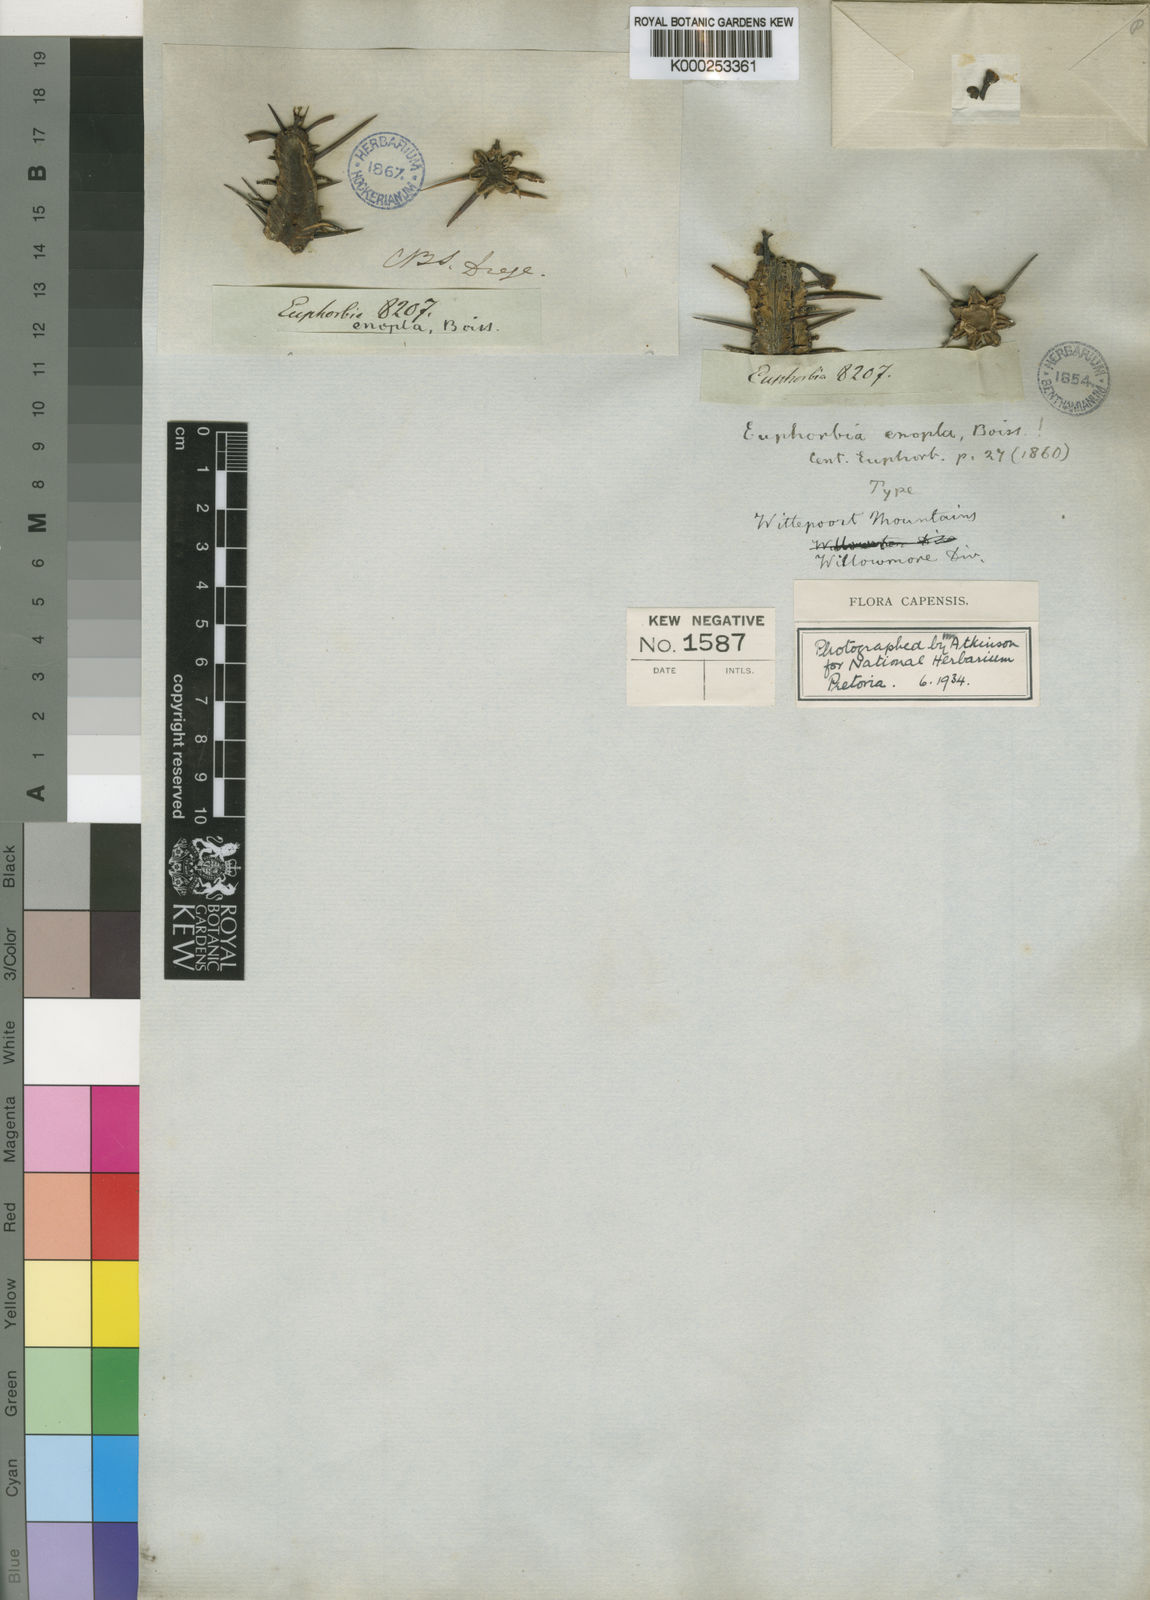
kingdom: Plantae
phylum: Tracheophyta
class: Magnoliopsida
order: Malpighiales
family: Euphorbiaceae
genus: Euphorbia
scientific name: Euphorbia heptagona
